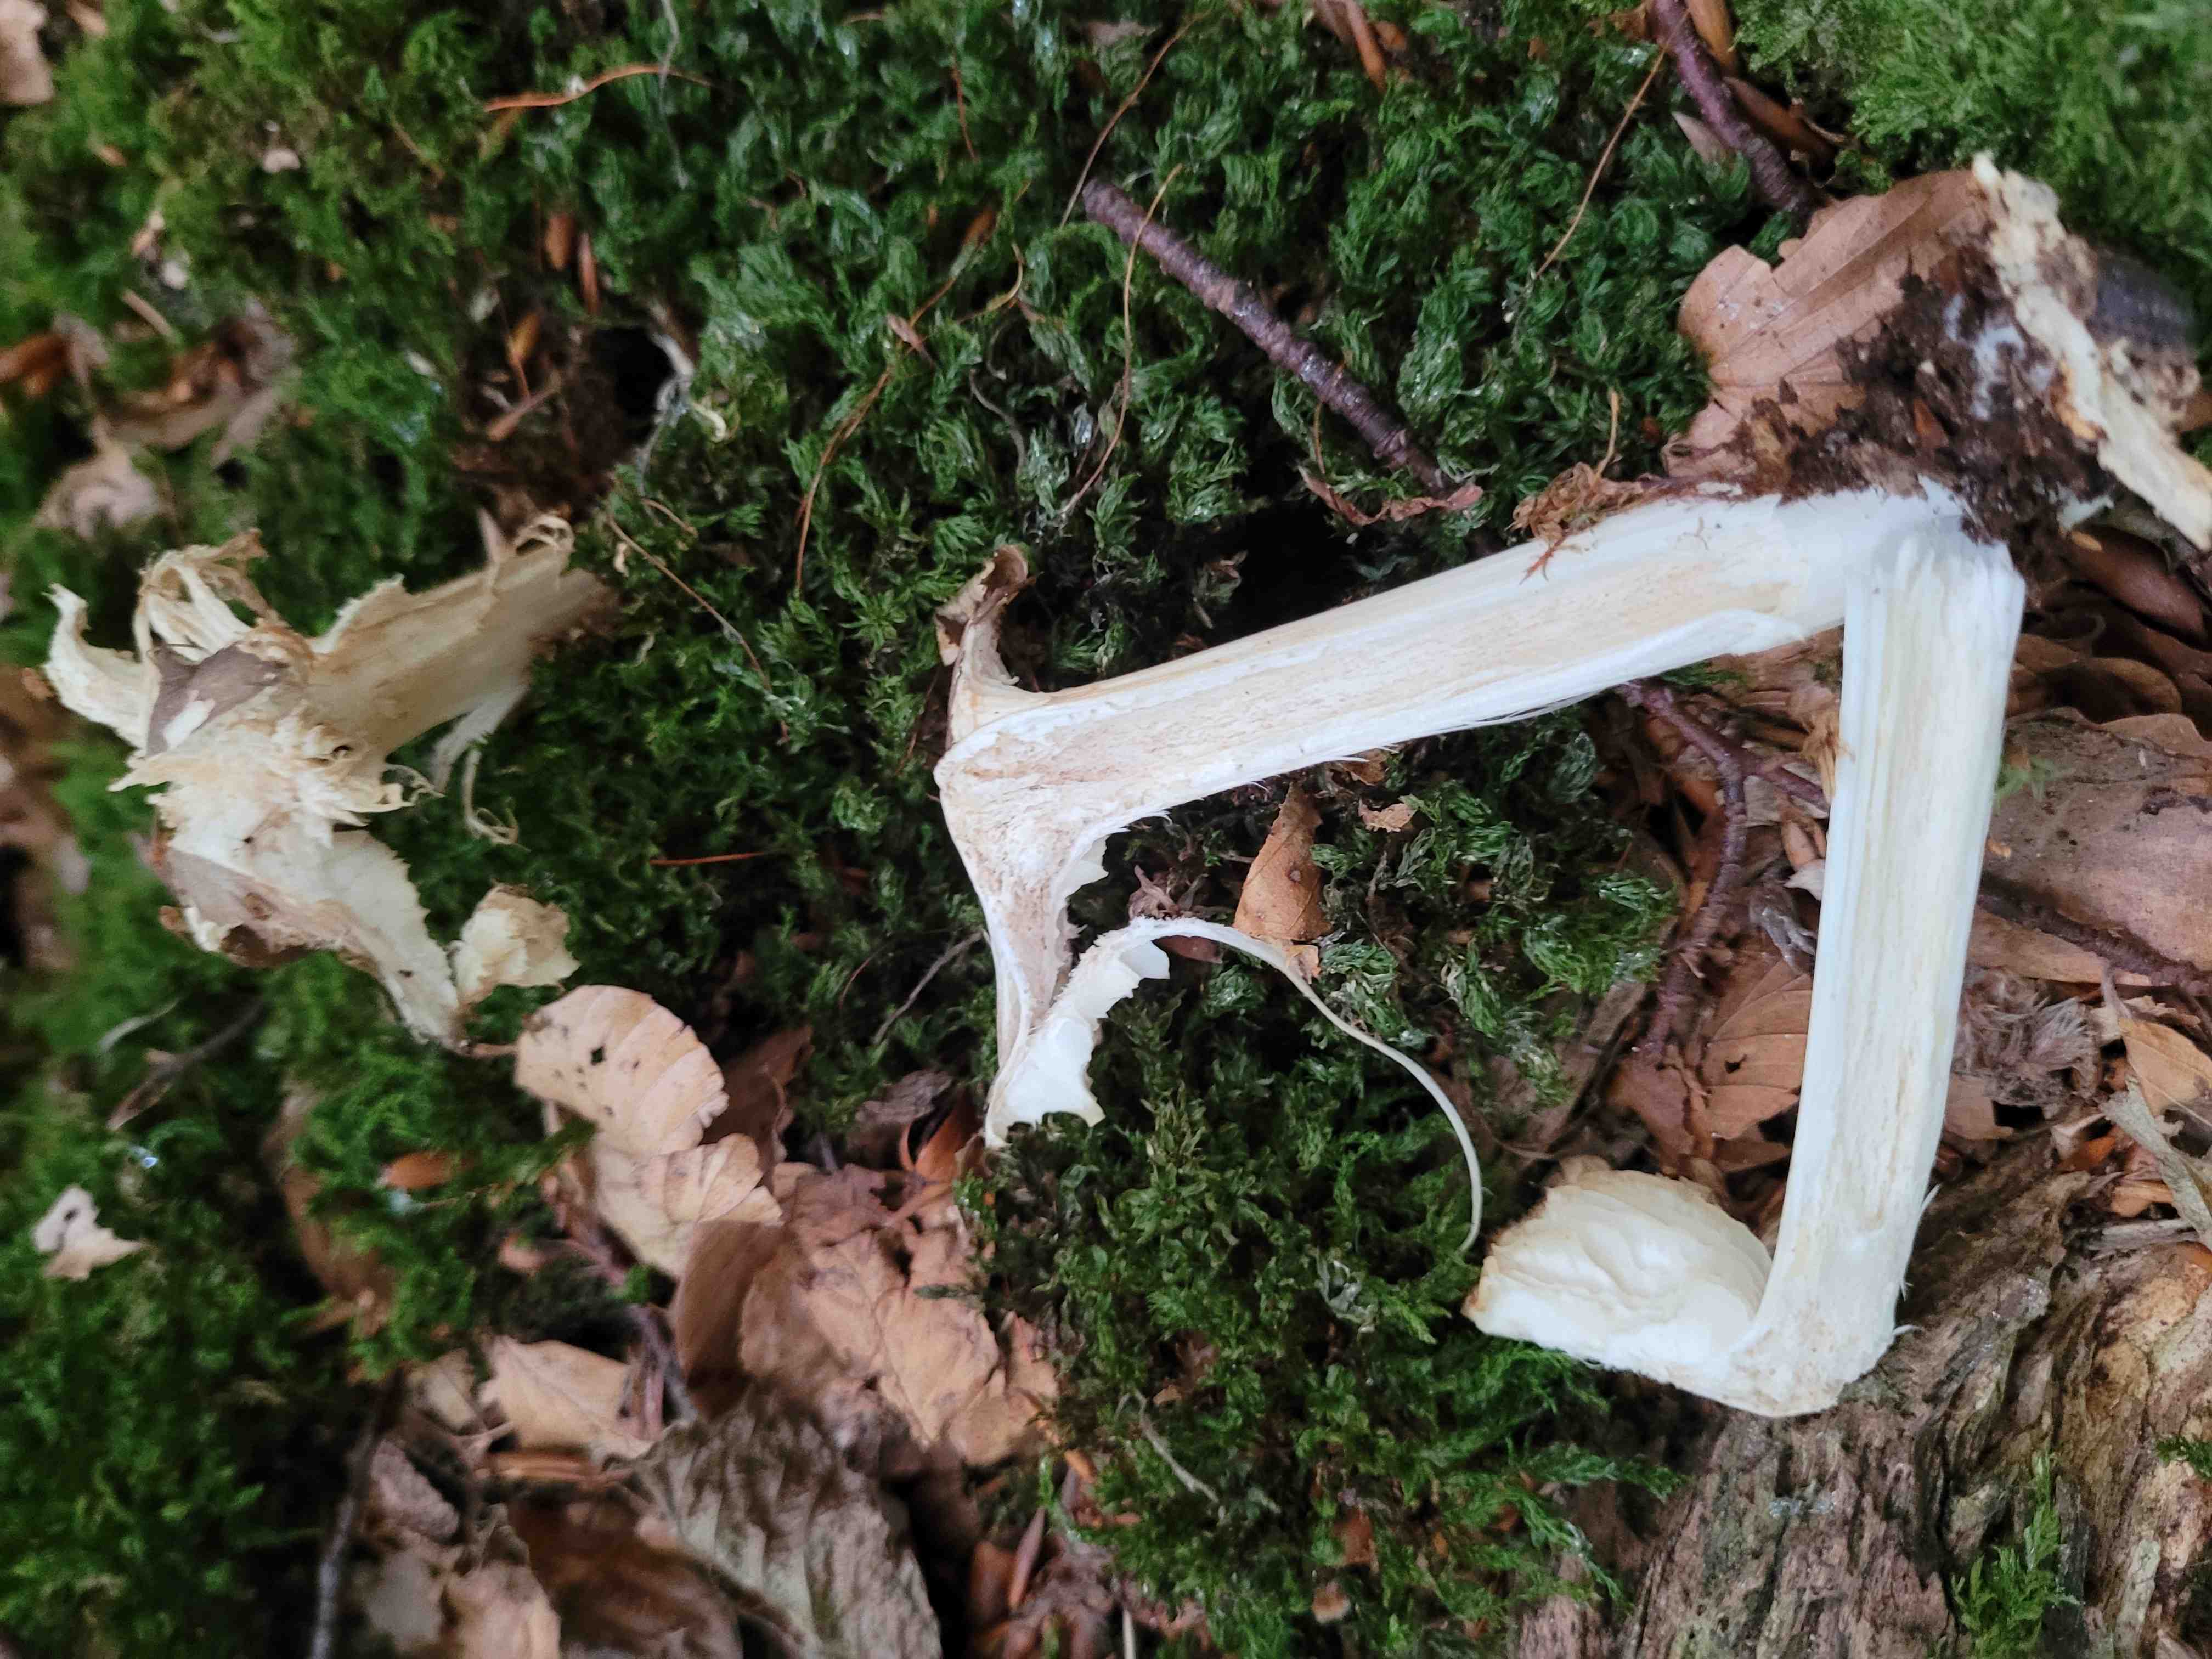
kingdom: Fungi
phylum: Basidiomycota
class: Agaricomycetes
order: Agaricales
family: Tricholomataceae
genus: Megacollybia
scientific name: Megacollybia platyphylla
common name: bredbladet væbnerhat
